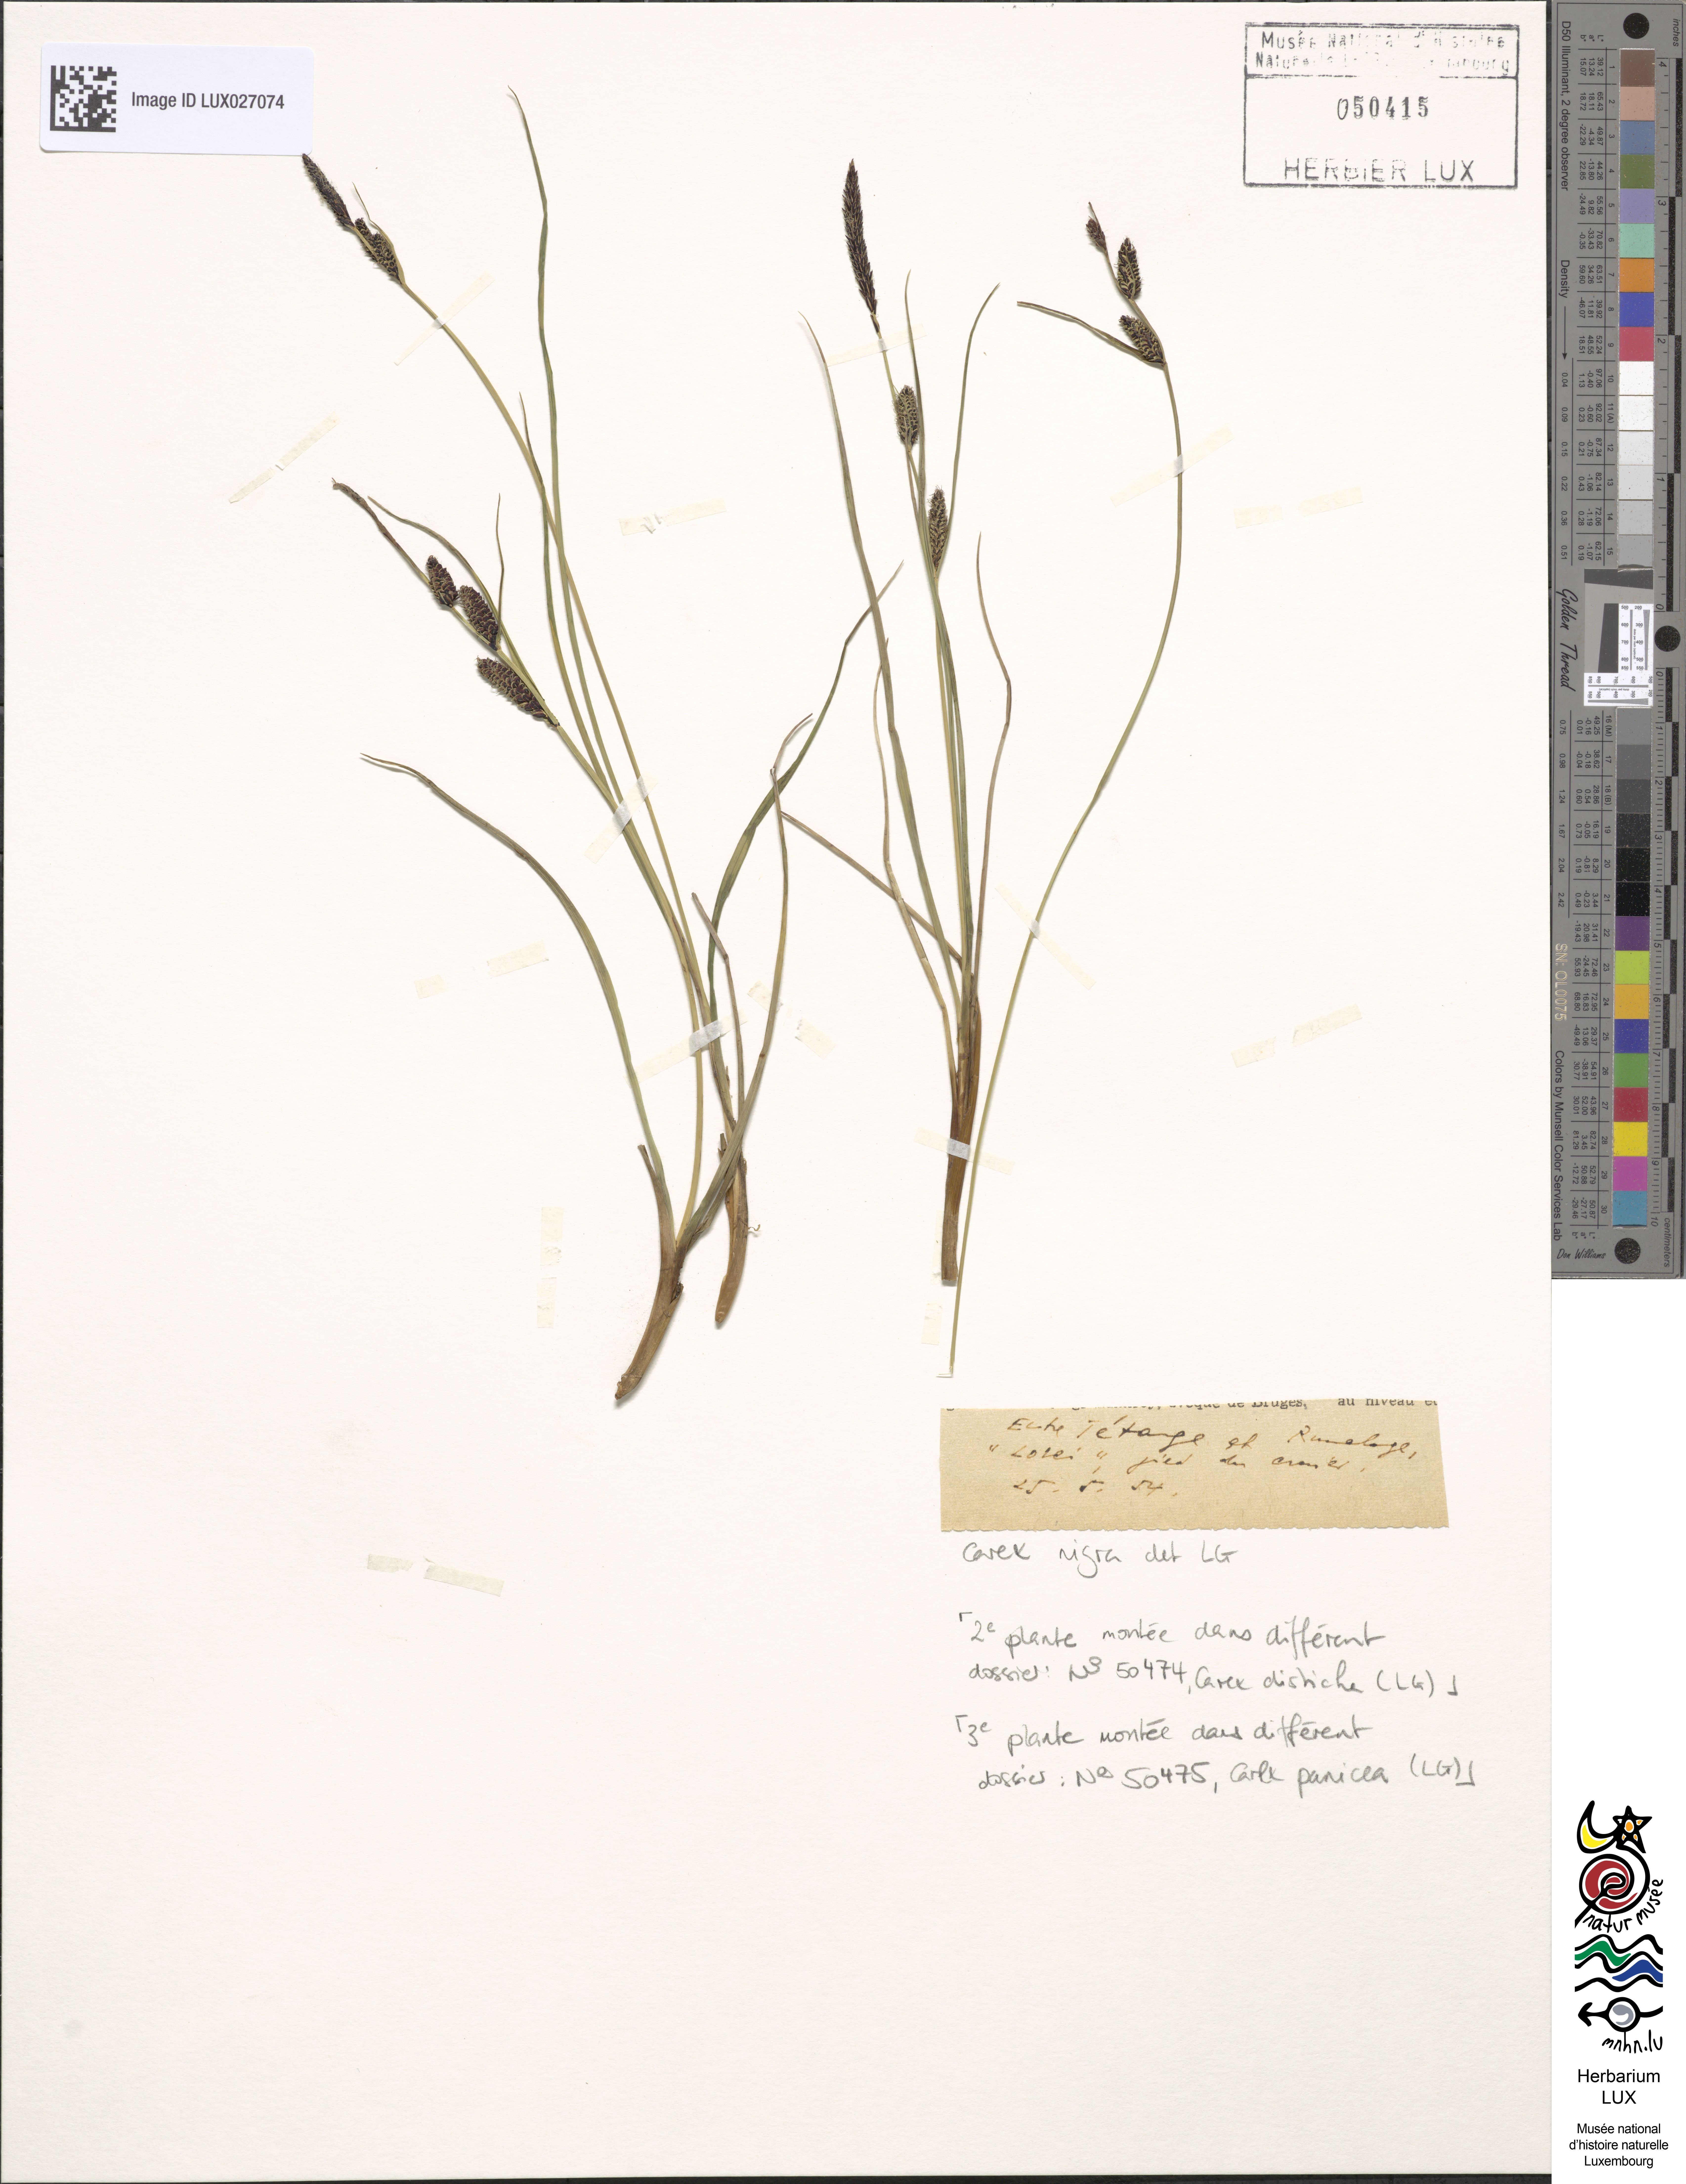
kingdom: Plantae
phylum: Tracheophyta
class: Liliopsida
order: Poales
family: Cyperaceae
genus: Carex
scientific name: Carex nigra
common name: Common sedge
